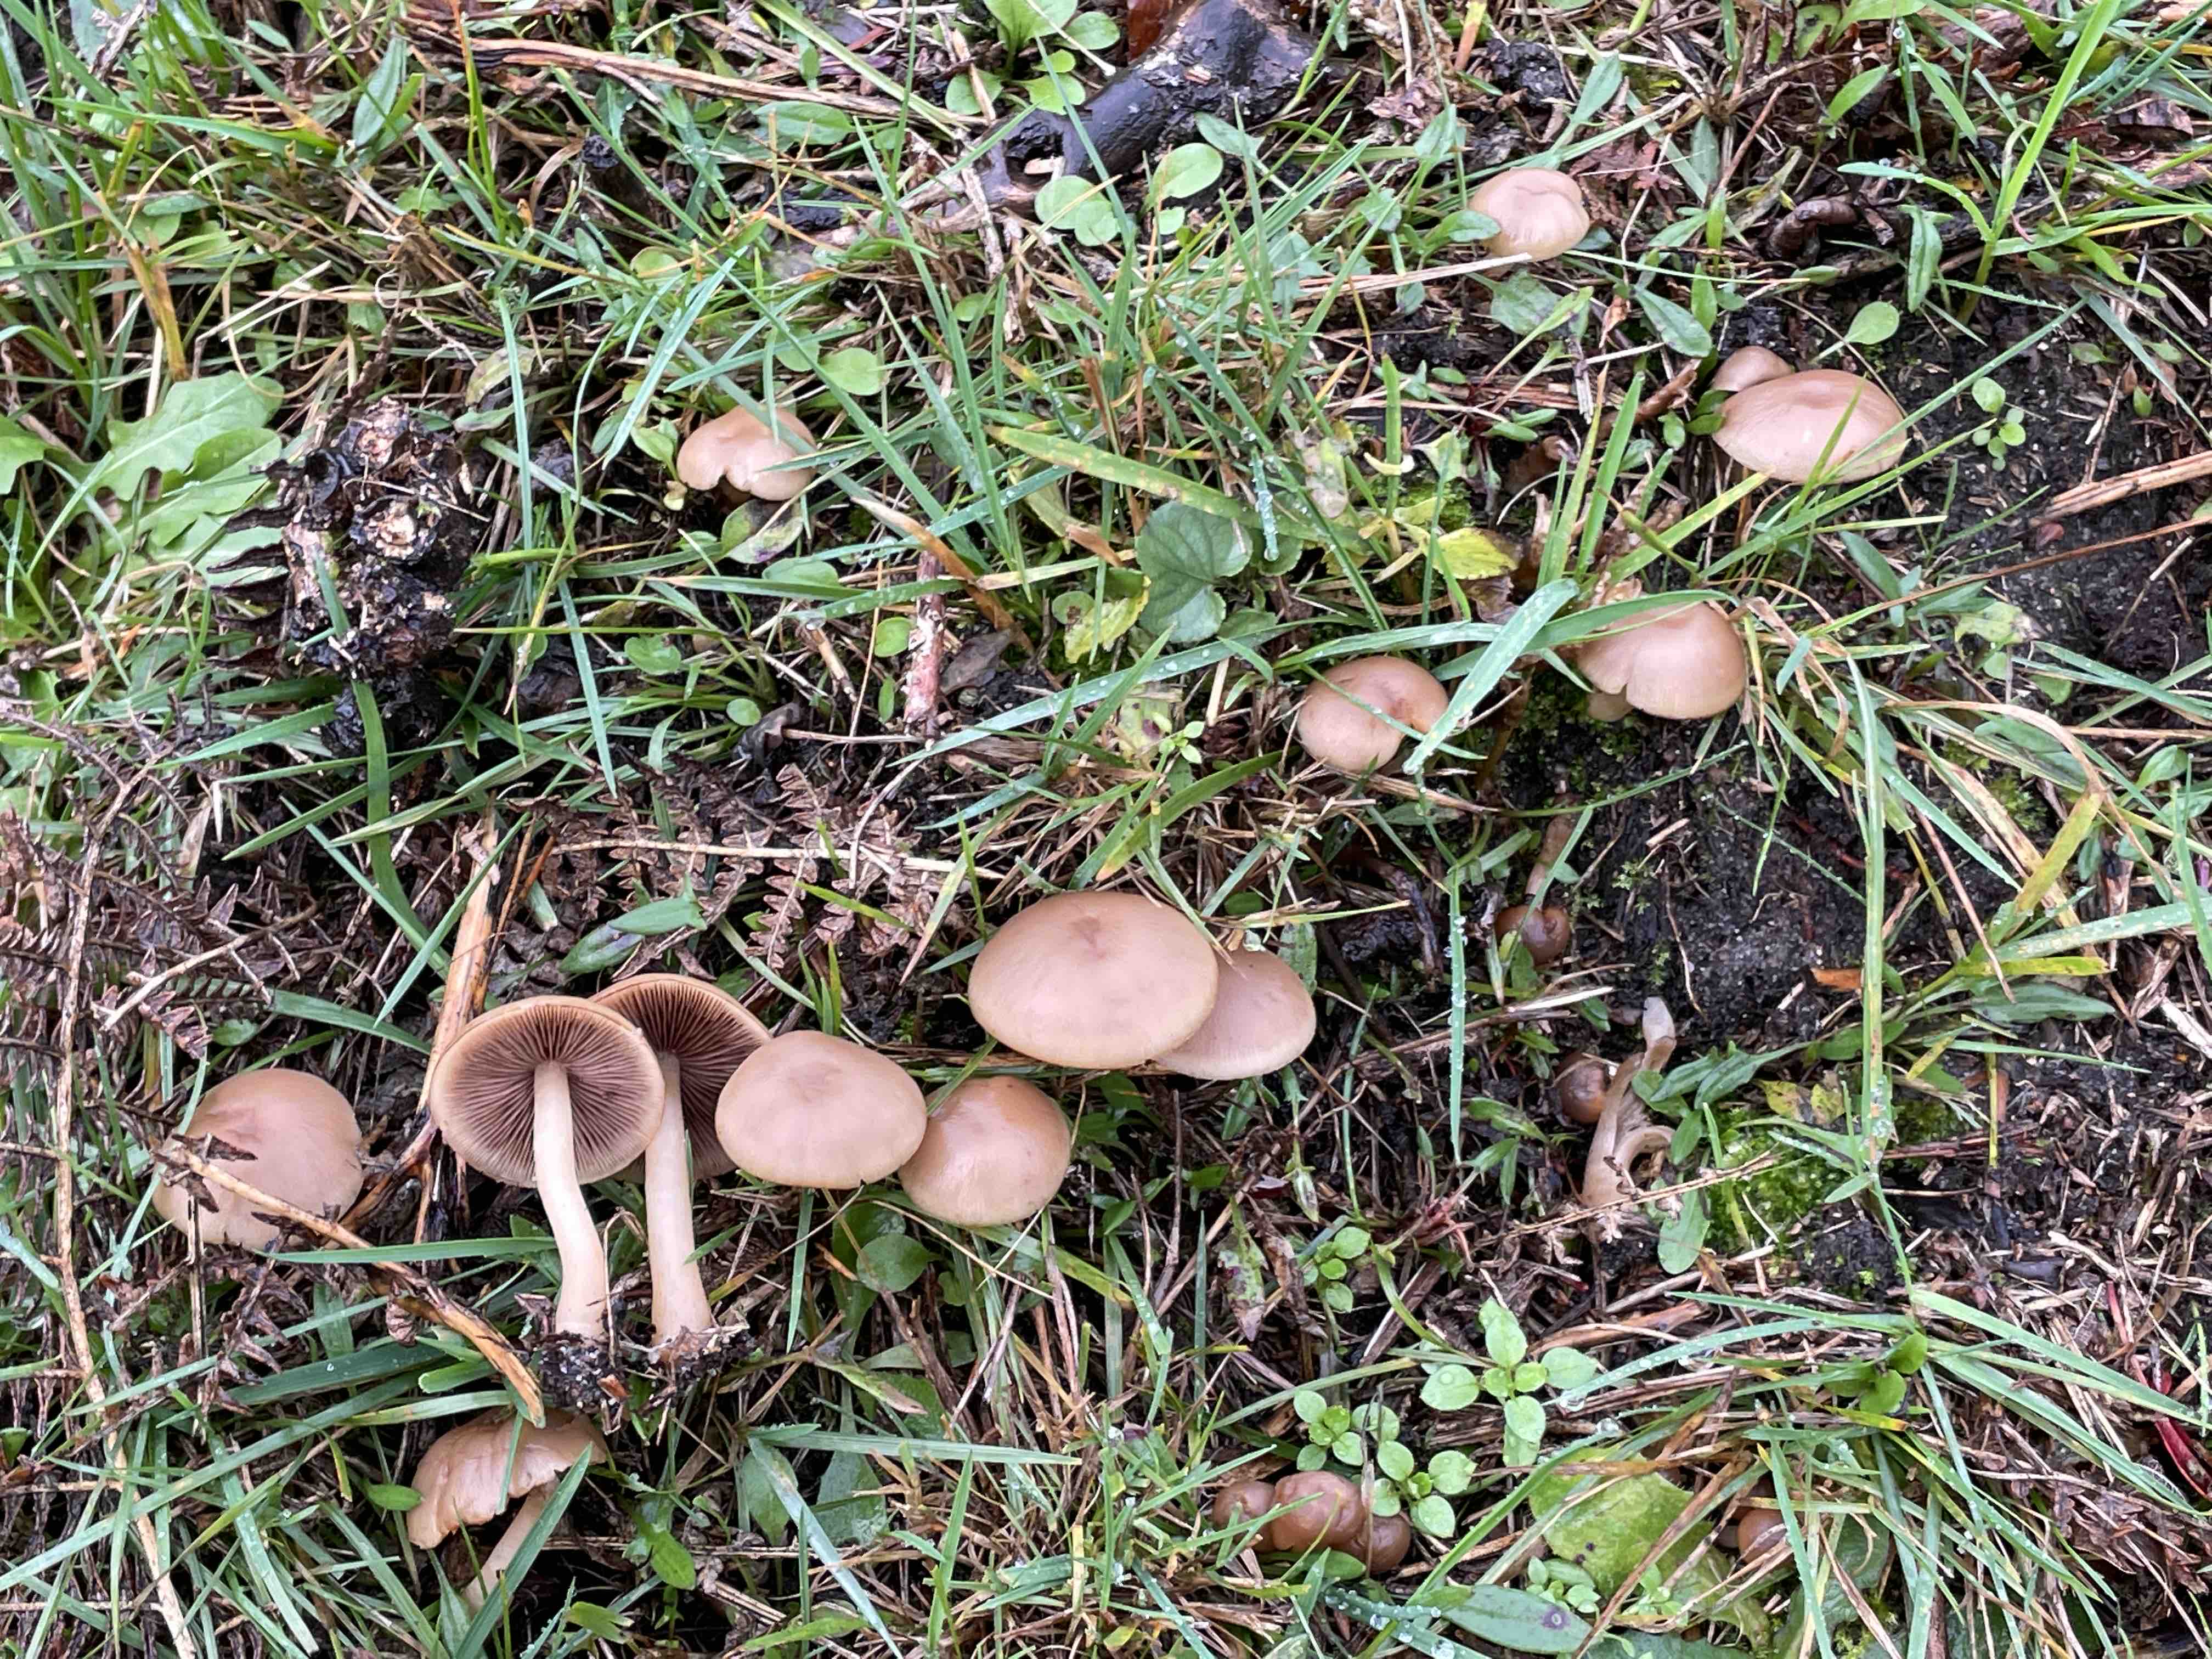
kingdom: Fungi
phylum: Basidiomycota
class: Agaricomycetes
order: Agaricales
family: Psathyrellaceae
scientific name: Psathyrellaceae
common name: mørkhatfamilien
